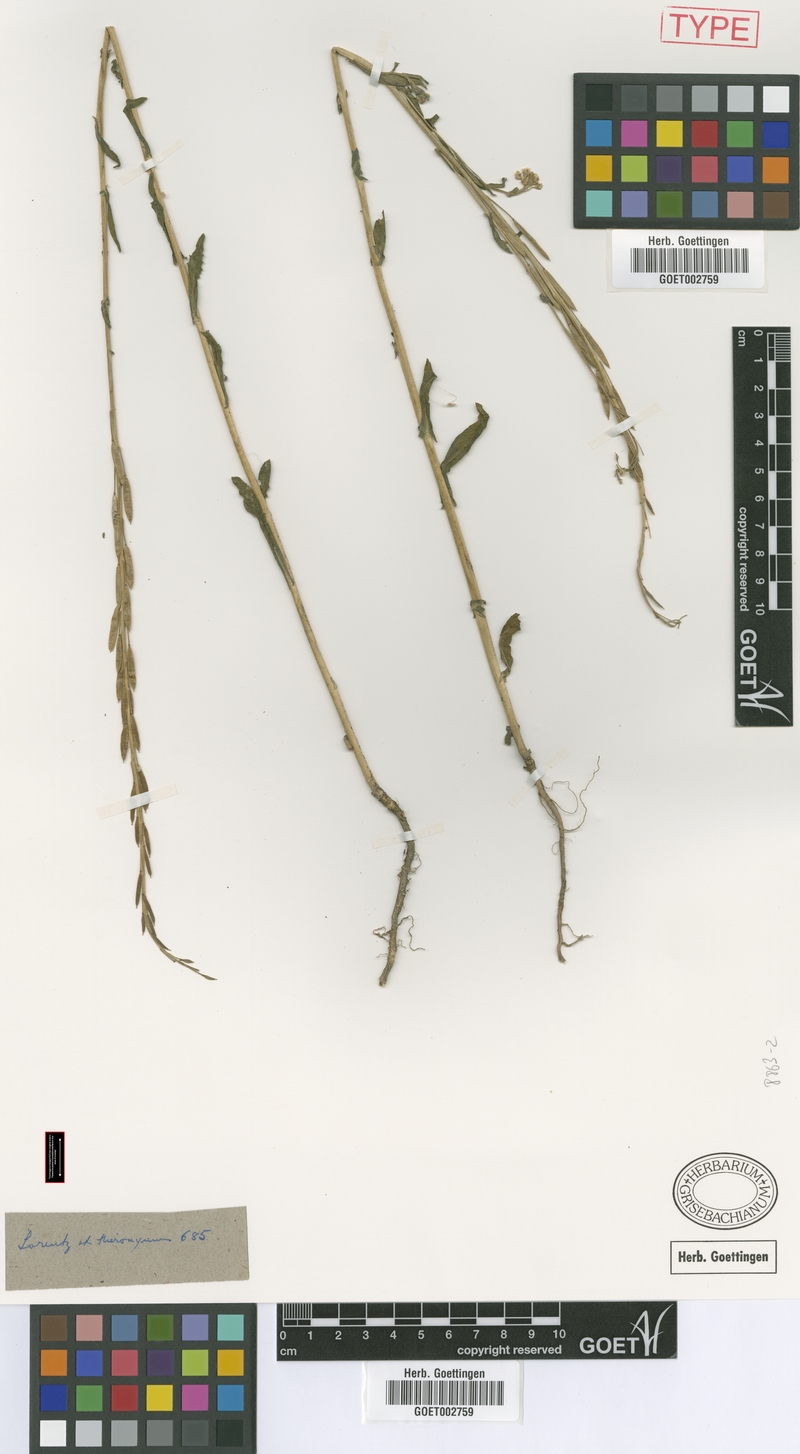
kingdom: Plantae
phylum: Tracheophyta
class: Magnoliopsida
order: Brassicales
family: Brassicaceae
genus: Exhalimolobos
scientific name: Exhalimolobos weddellii
